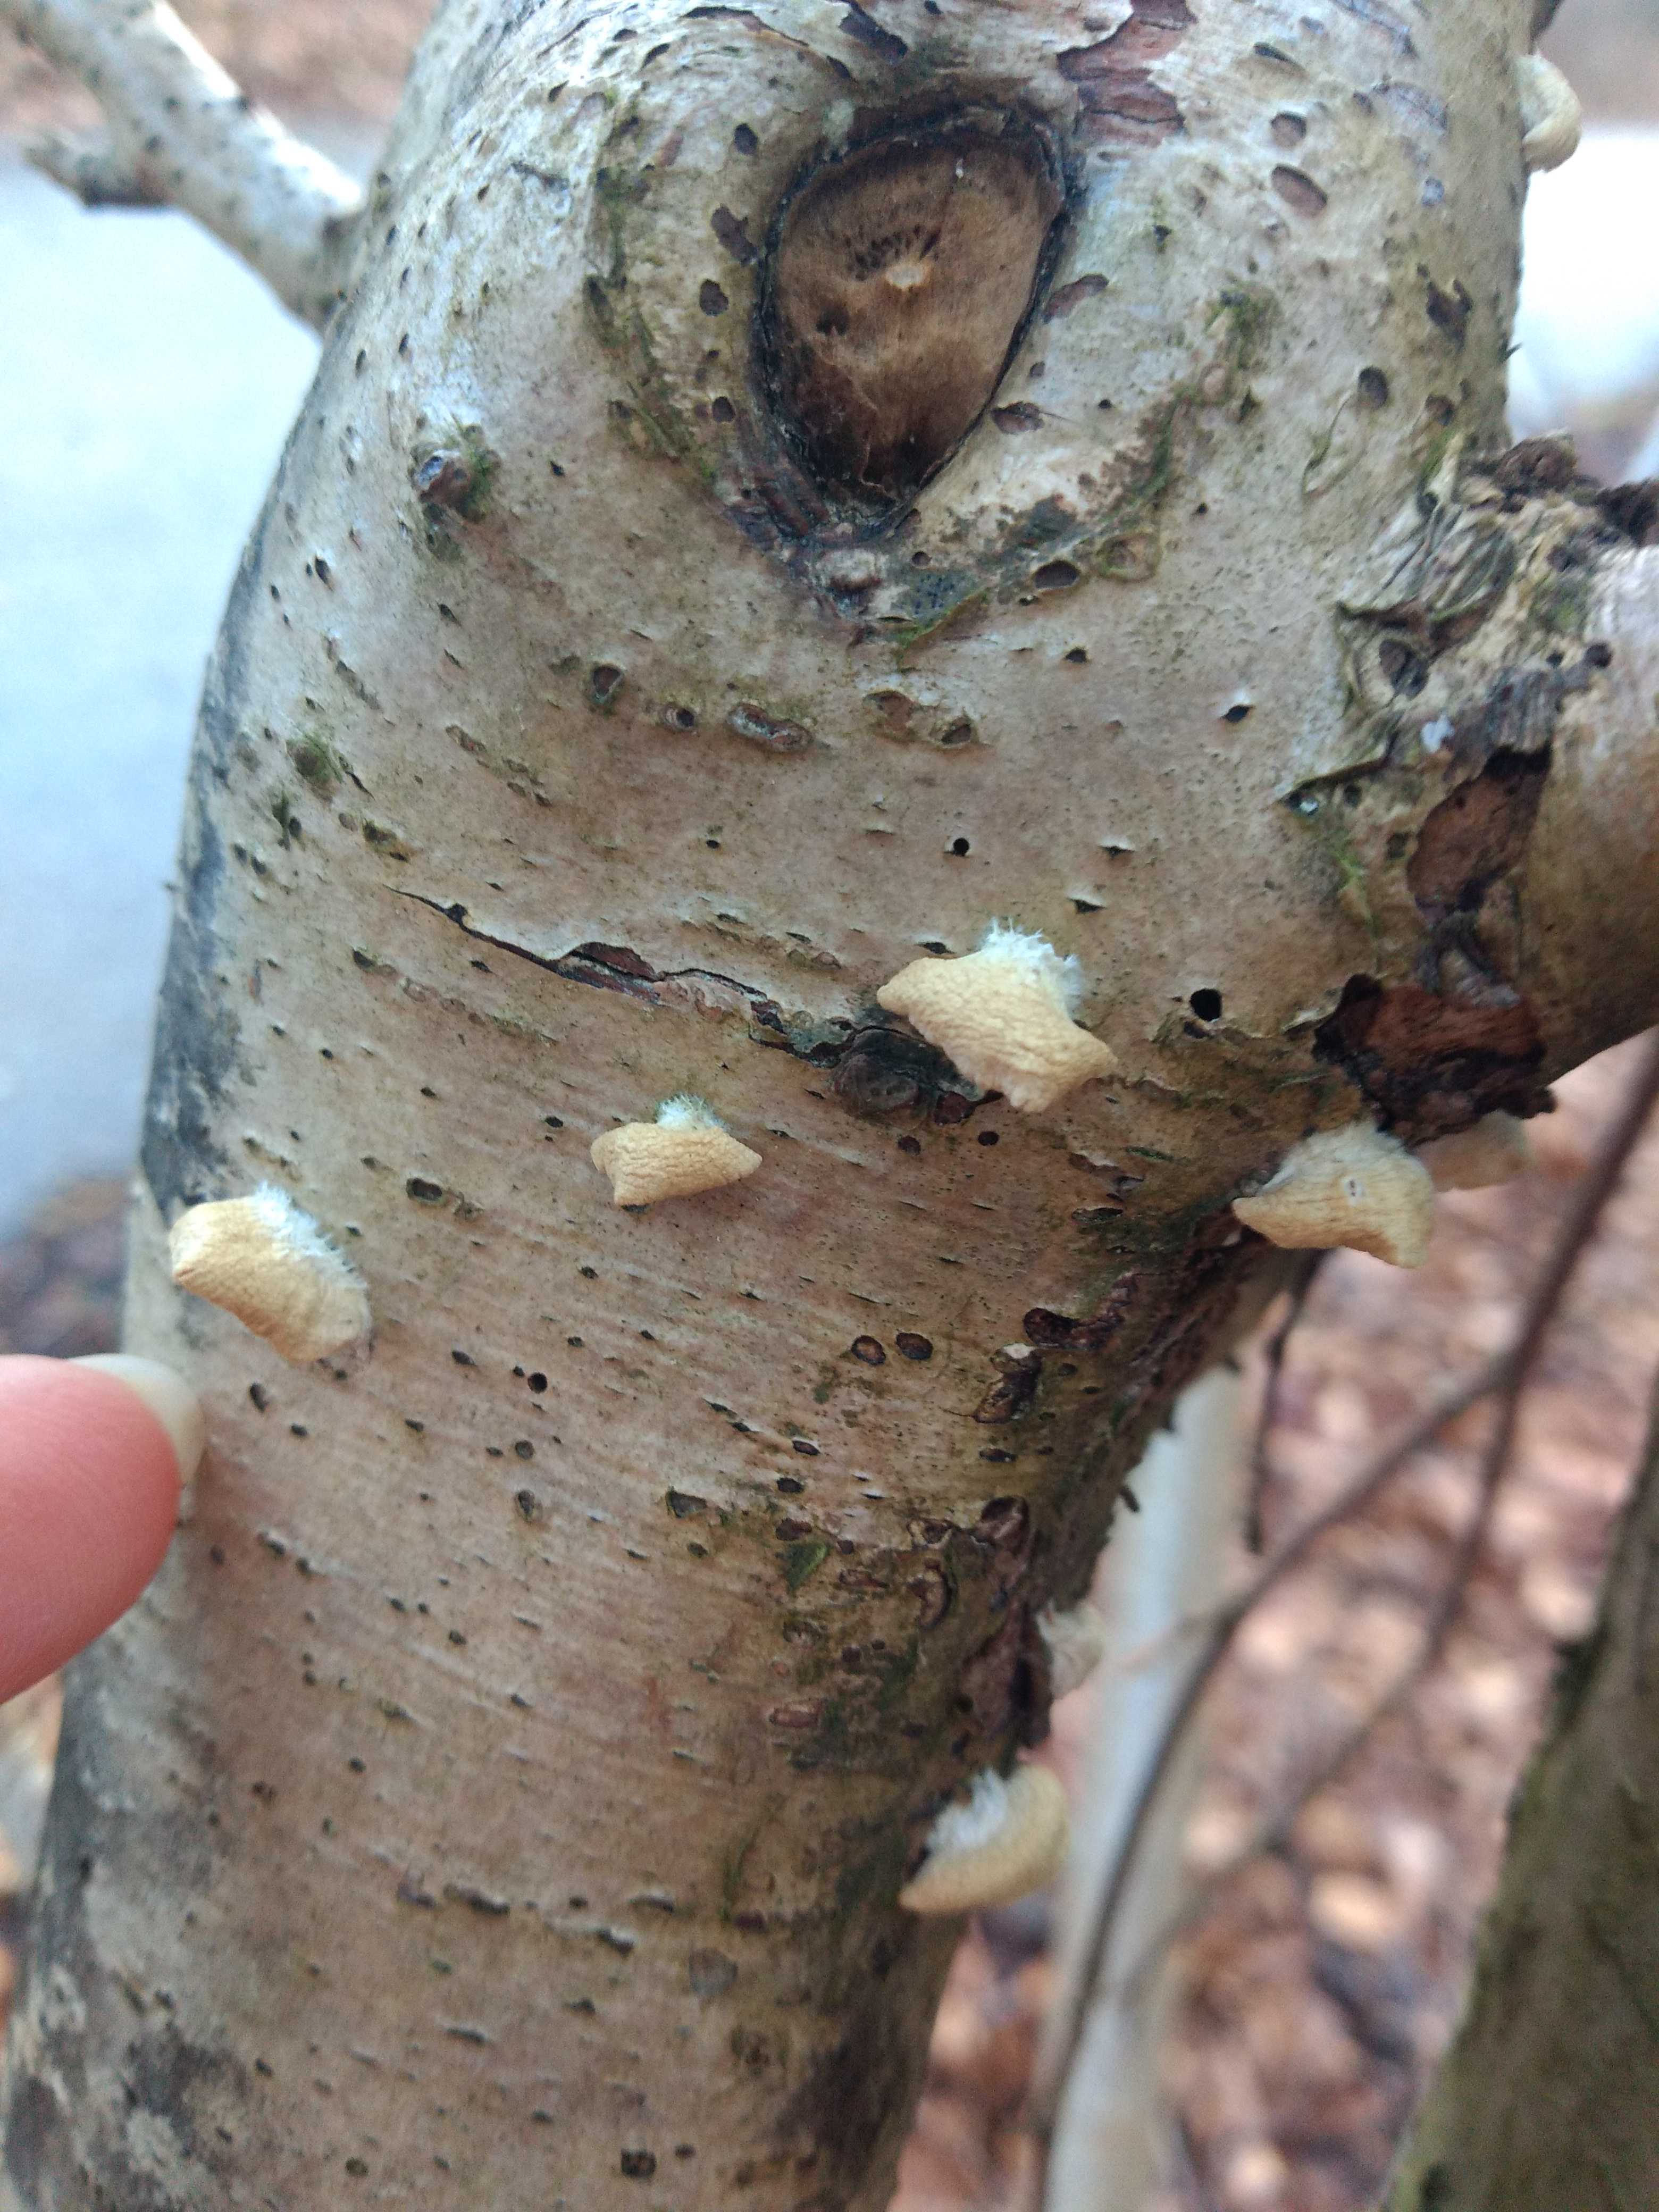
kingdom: Fungi
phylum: Basidiomycota
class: Agaricomycetes
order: Agaricales
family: Crepidotaceae
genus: Crepidotus
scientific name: Crepidotus
